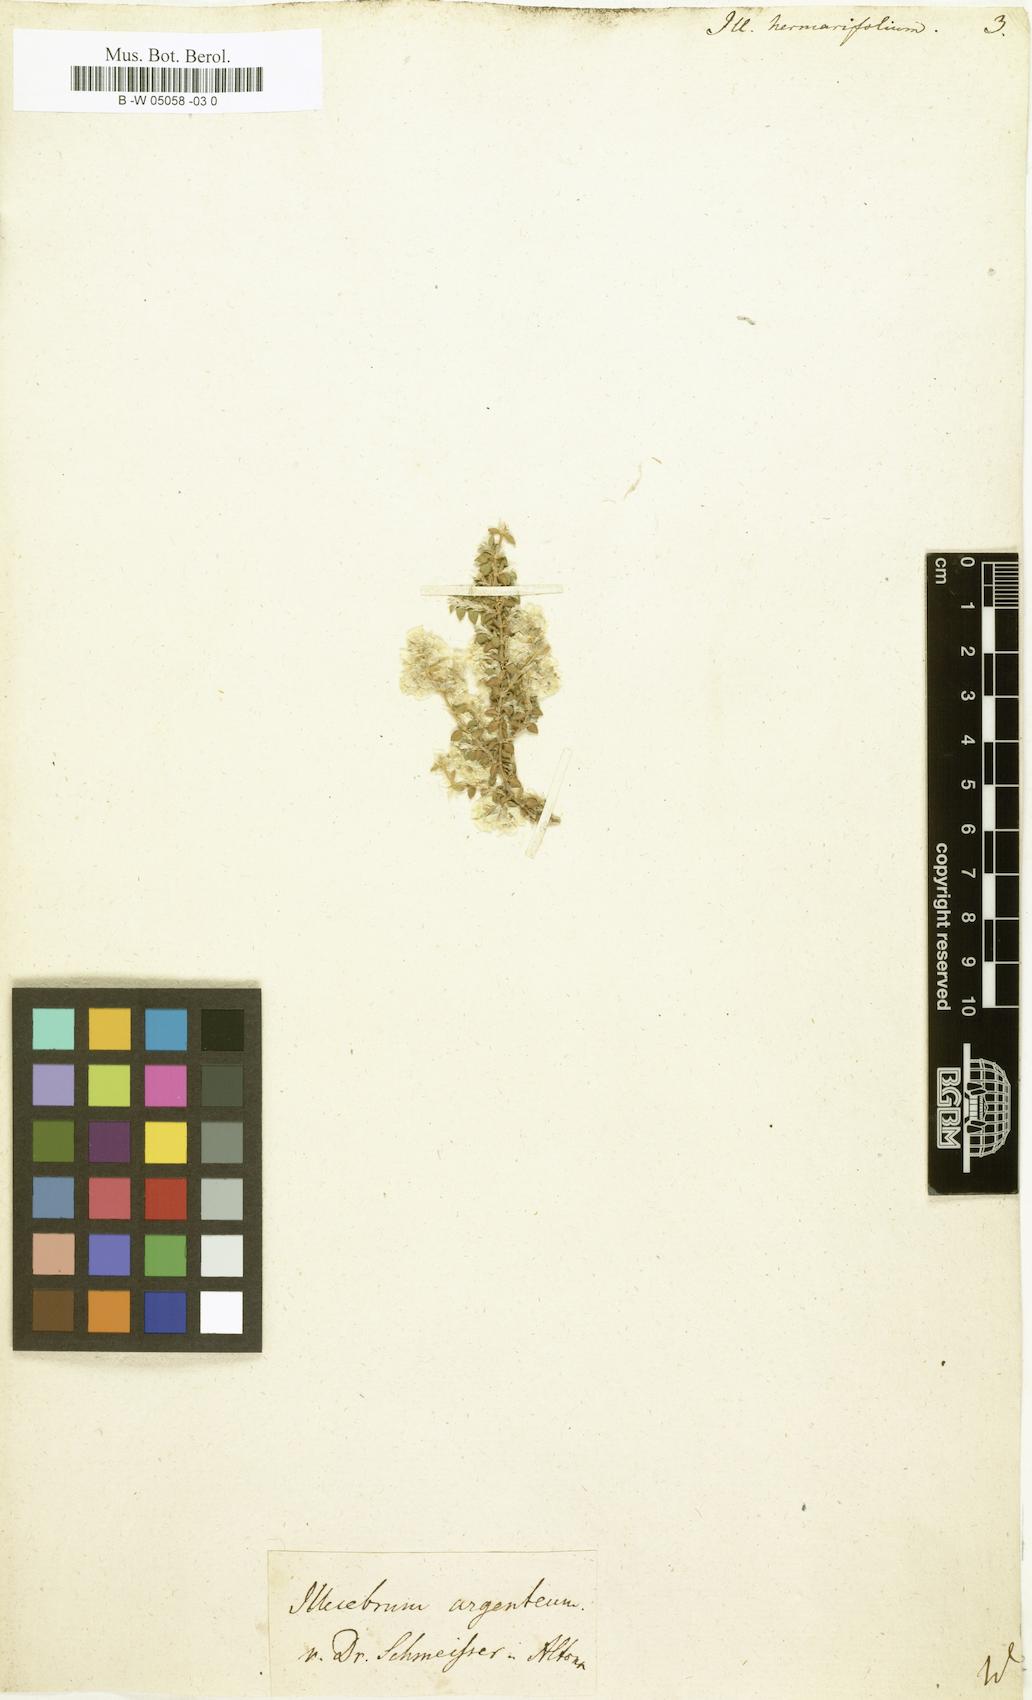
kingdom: Plantae
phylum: Tracheophyta
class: Magnoliopsida
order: Caryophyllales
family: Caryophyllaceae
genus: Illecebrum
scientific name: Illecebrum
